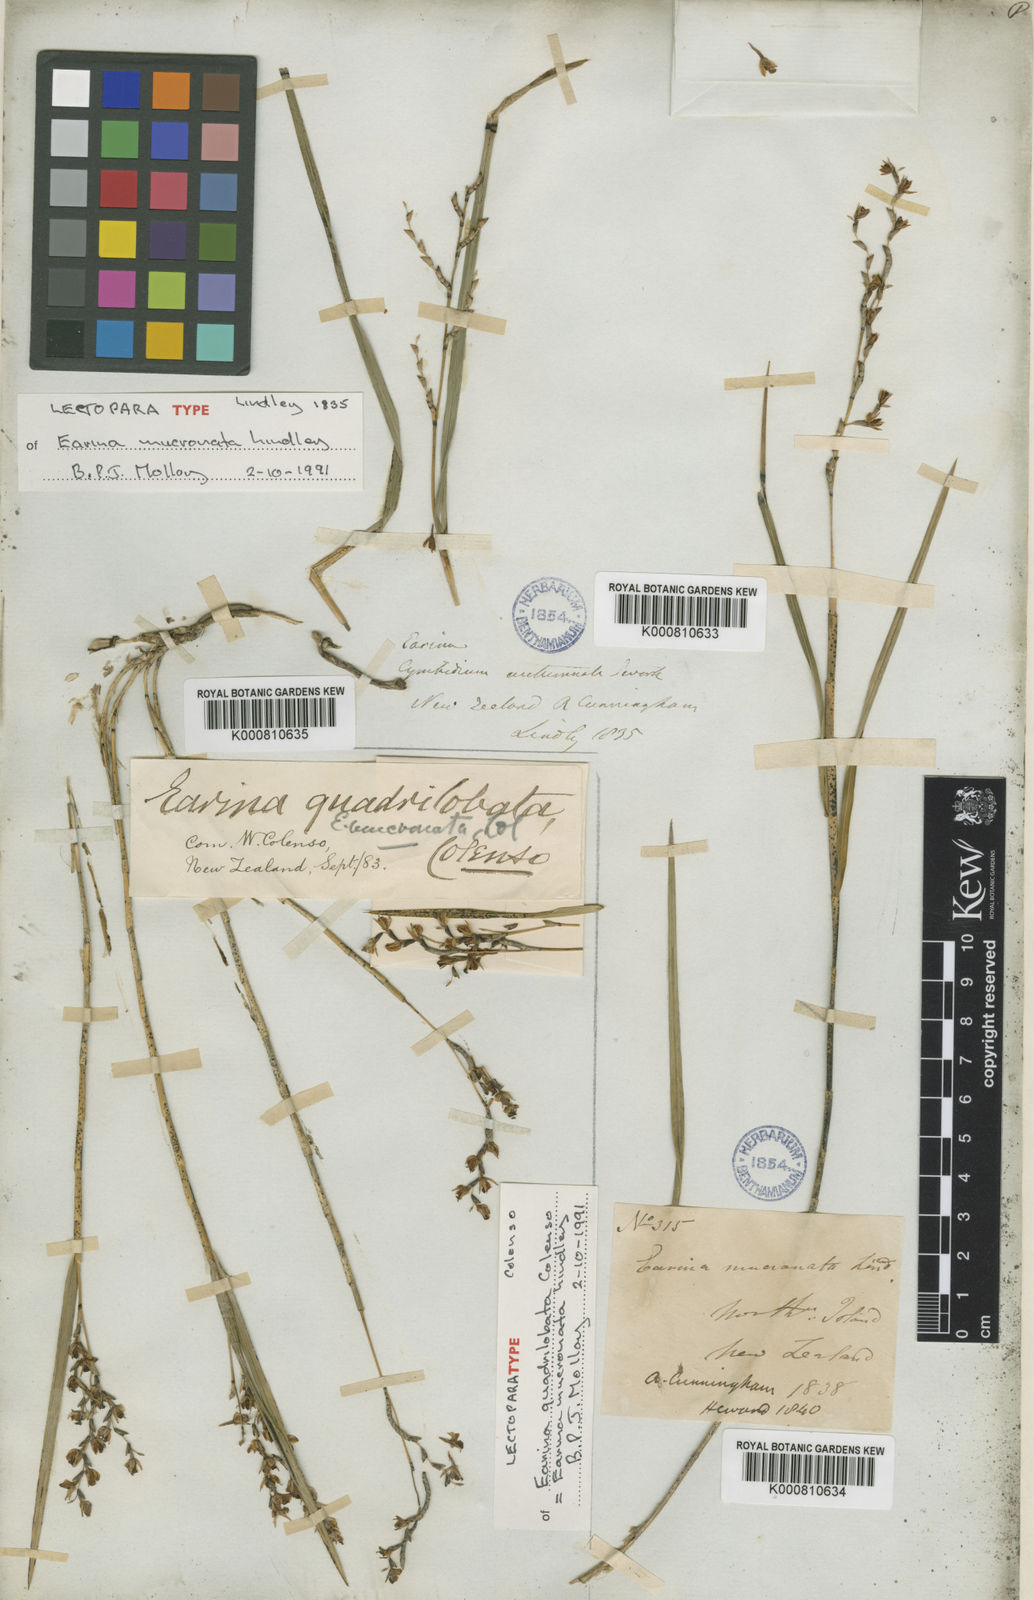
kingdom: Plantae
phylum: Tracheophyta
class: Liliopsida
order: Asparagales
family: Orchidaceae
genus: Earina
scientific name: Earina mucronata
